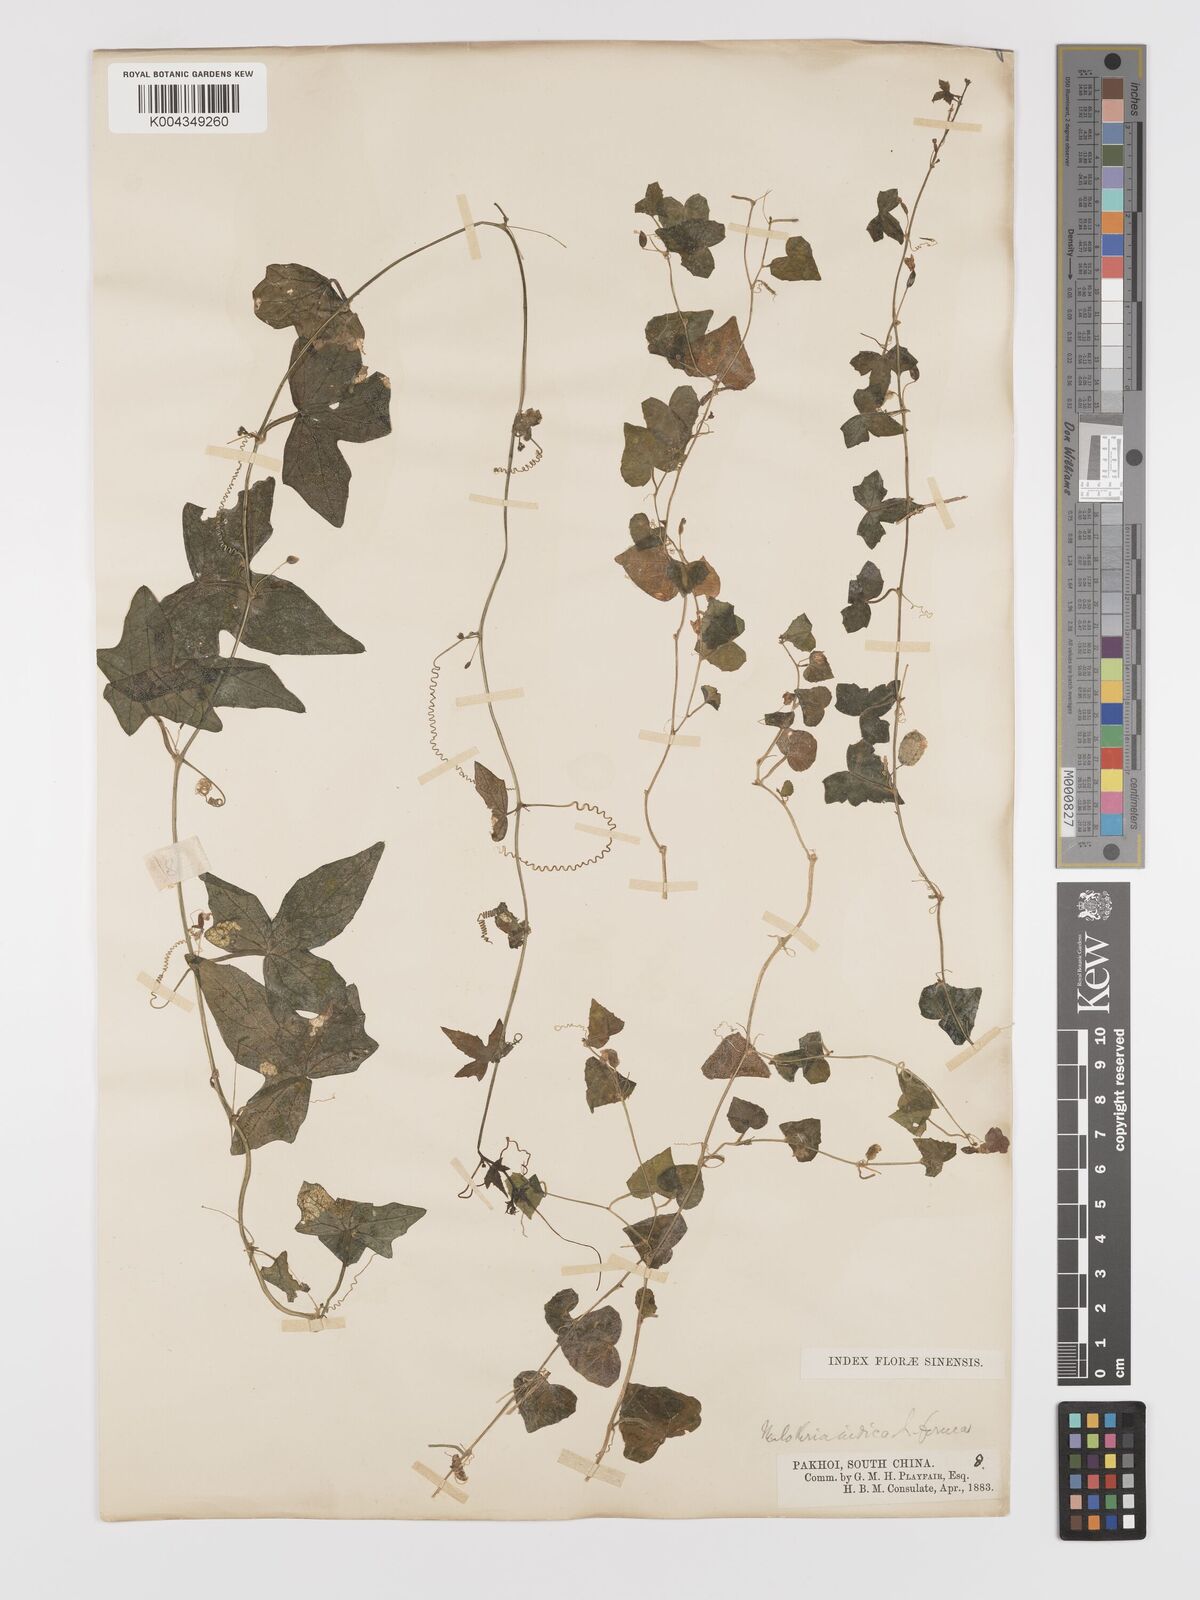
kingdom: Plantae
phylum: Tracheophyta
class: Magnoliopsida
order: Cucurbitales
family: Cucurbitaceae
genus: Zehneria
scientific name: Zehneria japonica
